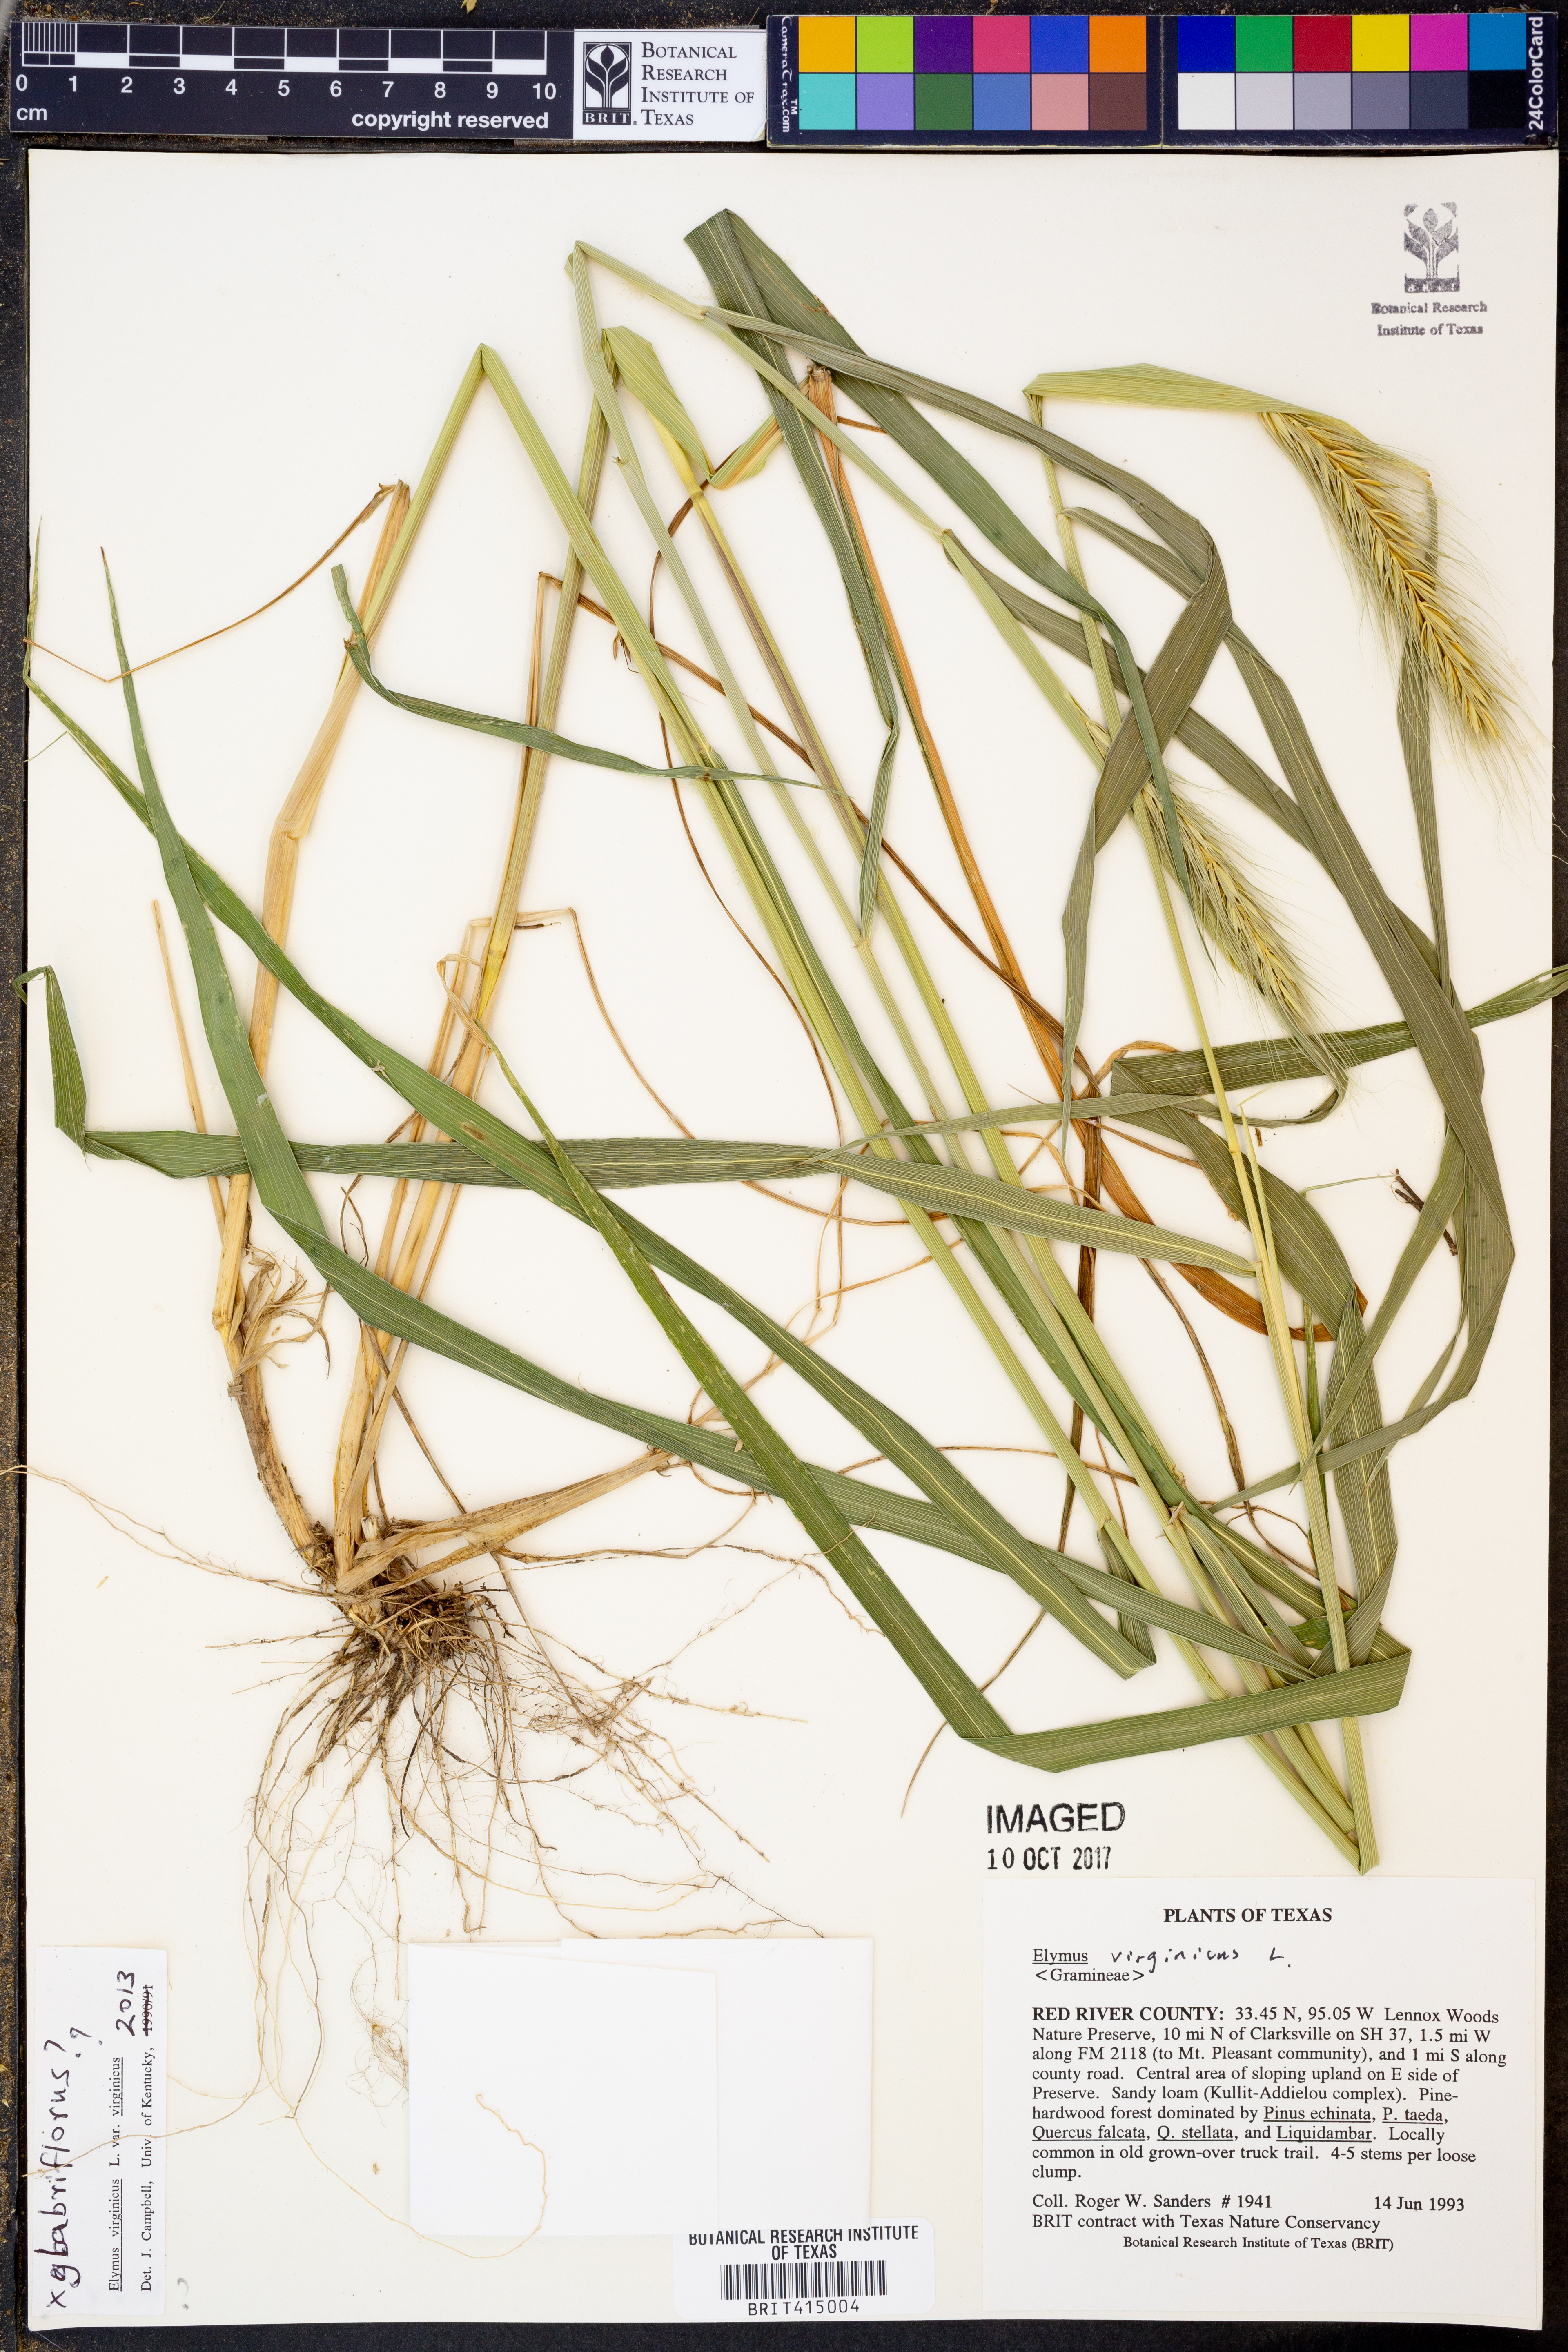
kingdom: Plantae
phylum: Tracheophyta
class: Liliopsida
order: Poales
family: Poaceae
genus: Elymus
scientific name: Elymus virginicus
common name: Common eastern wildrye
